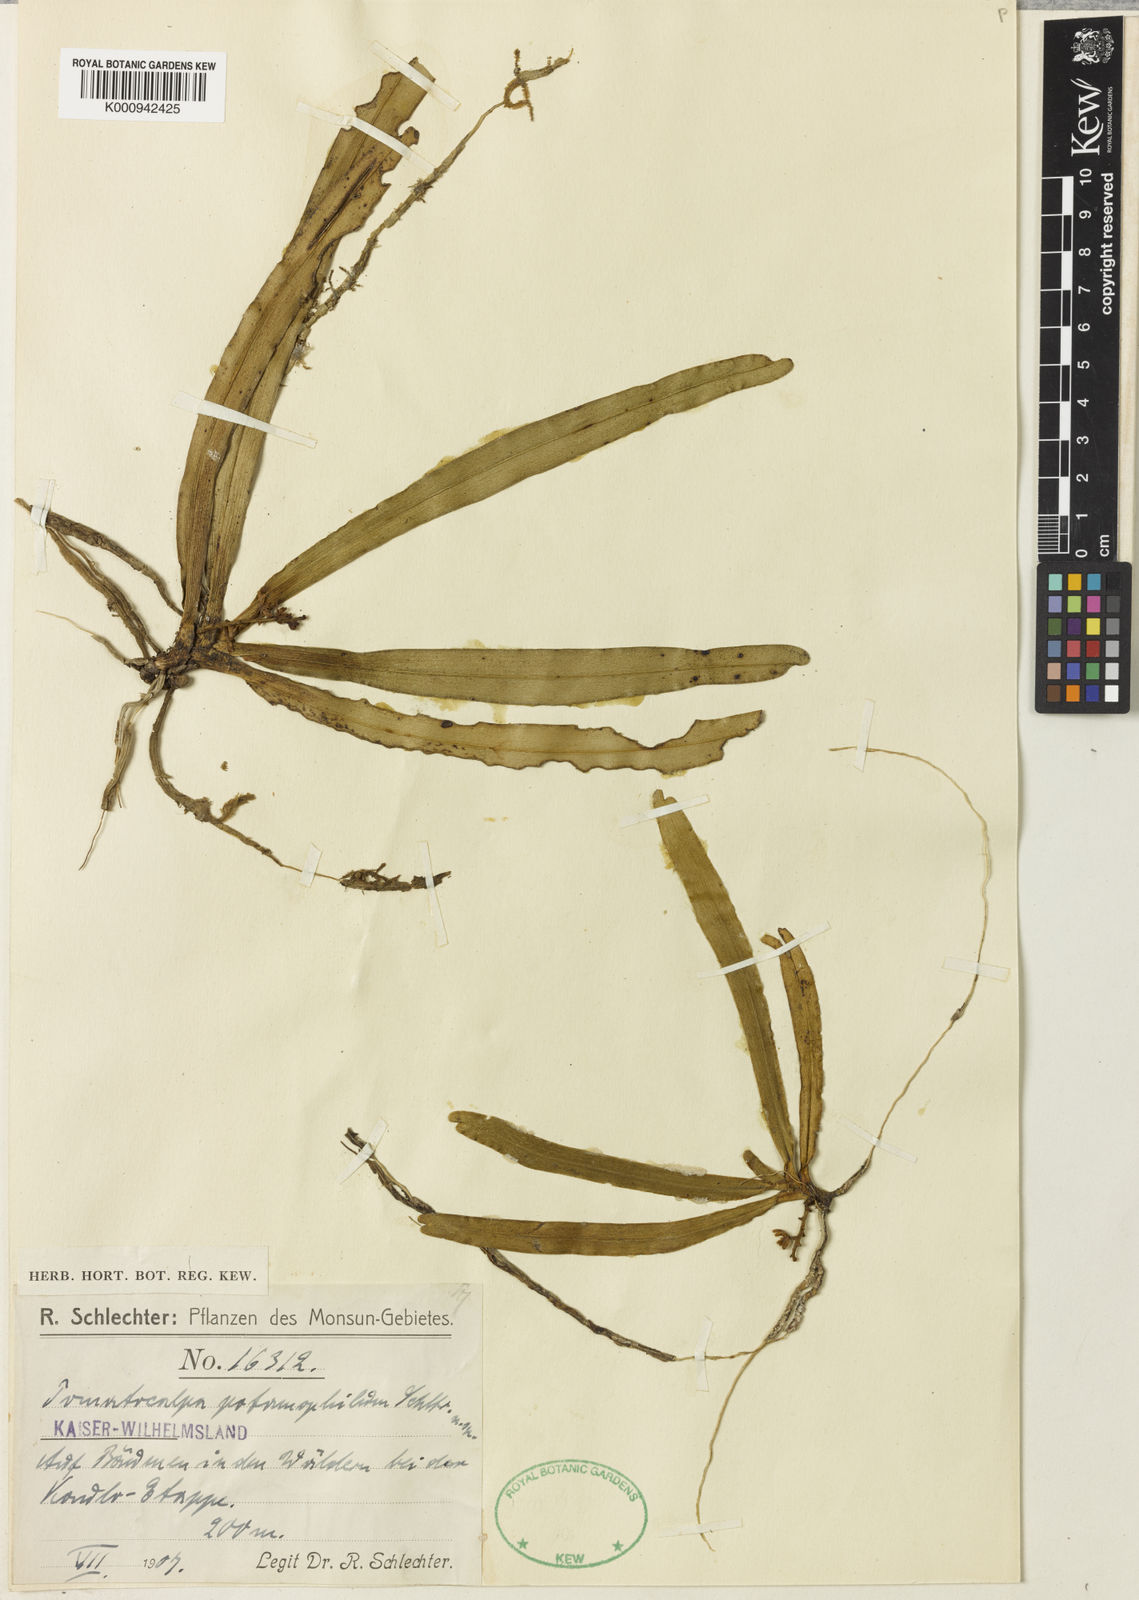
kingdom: Plantae
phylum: Tracheophyta
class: Liliopsida
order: Asparagales
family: Orchidaceae
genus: Pomatocalpa
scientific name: Pomatocalpa macphersonii
